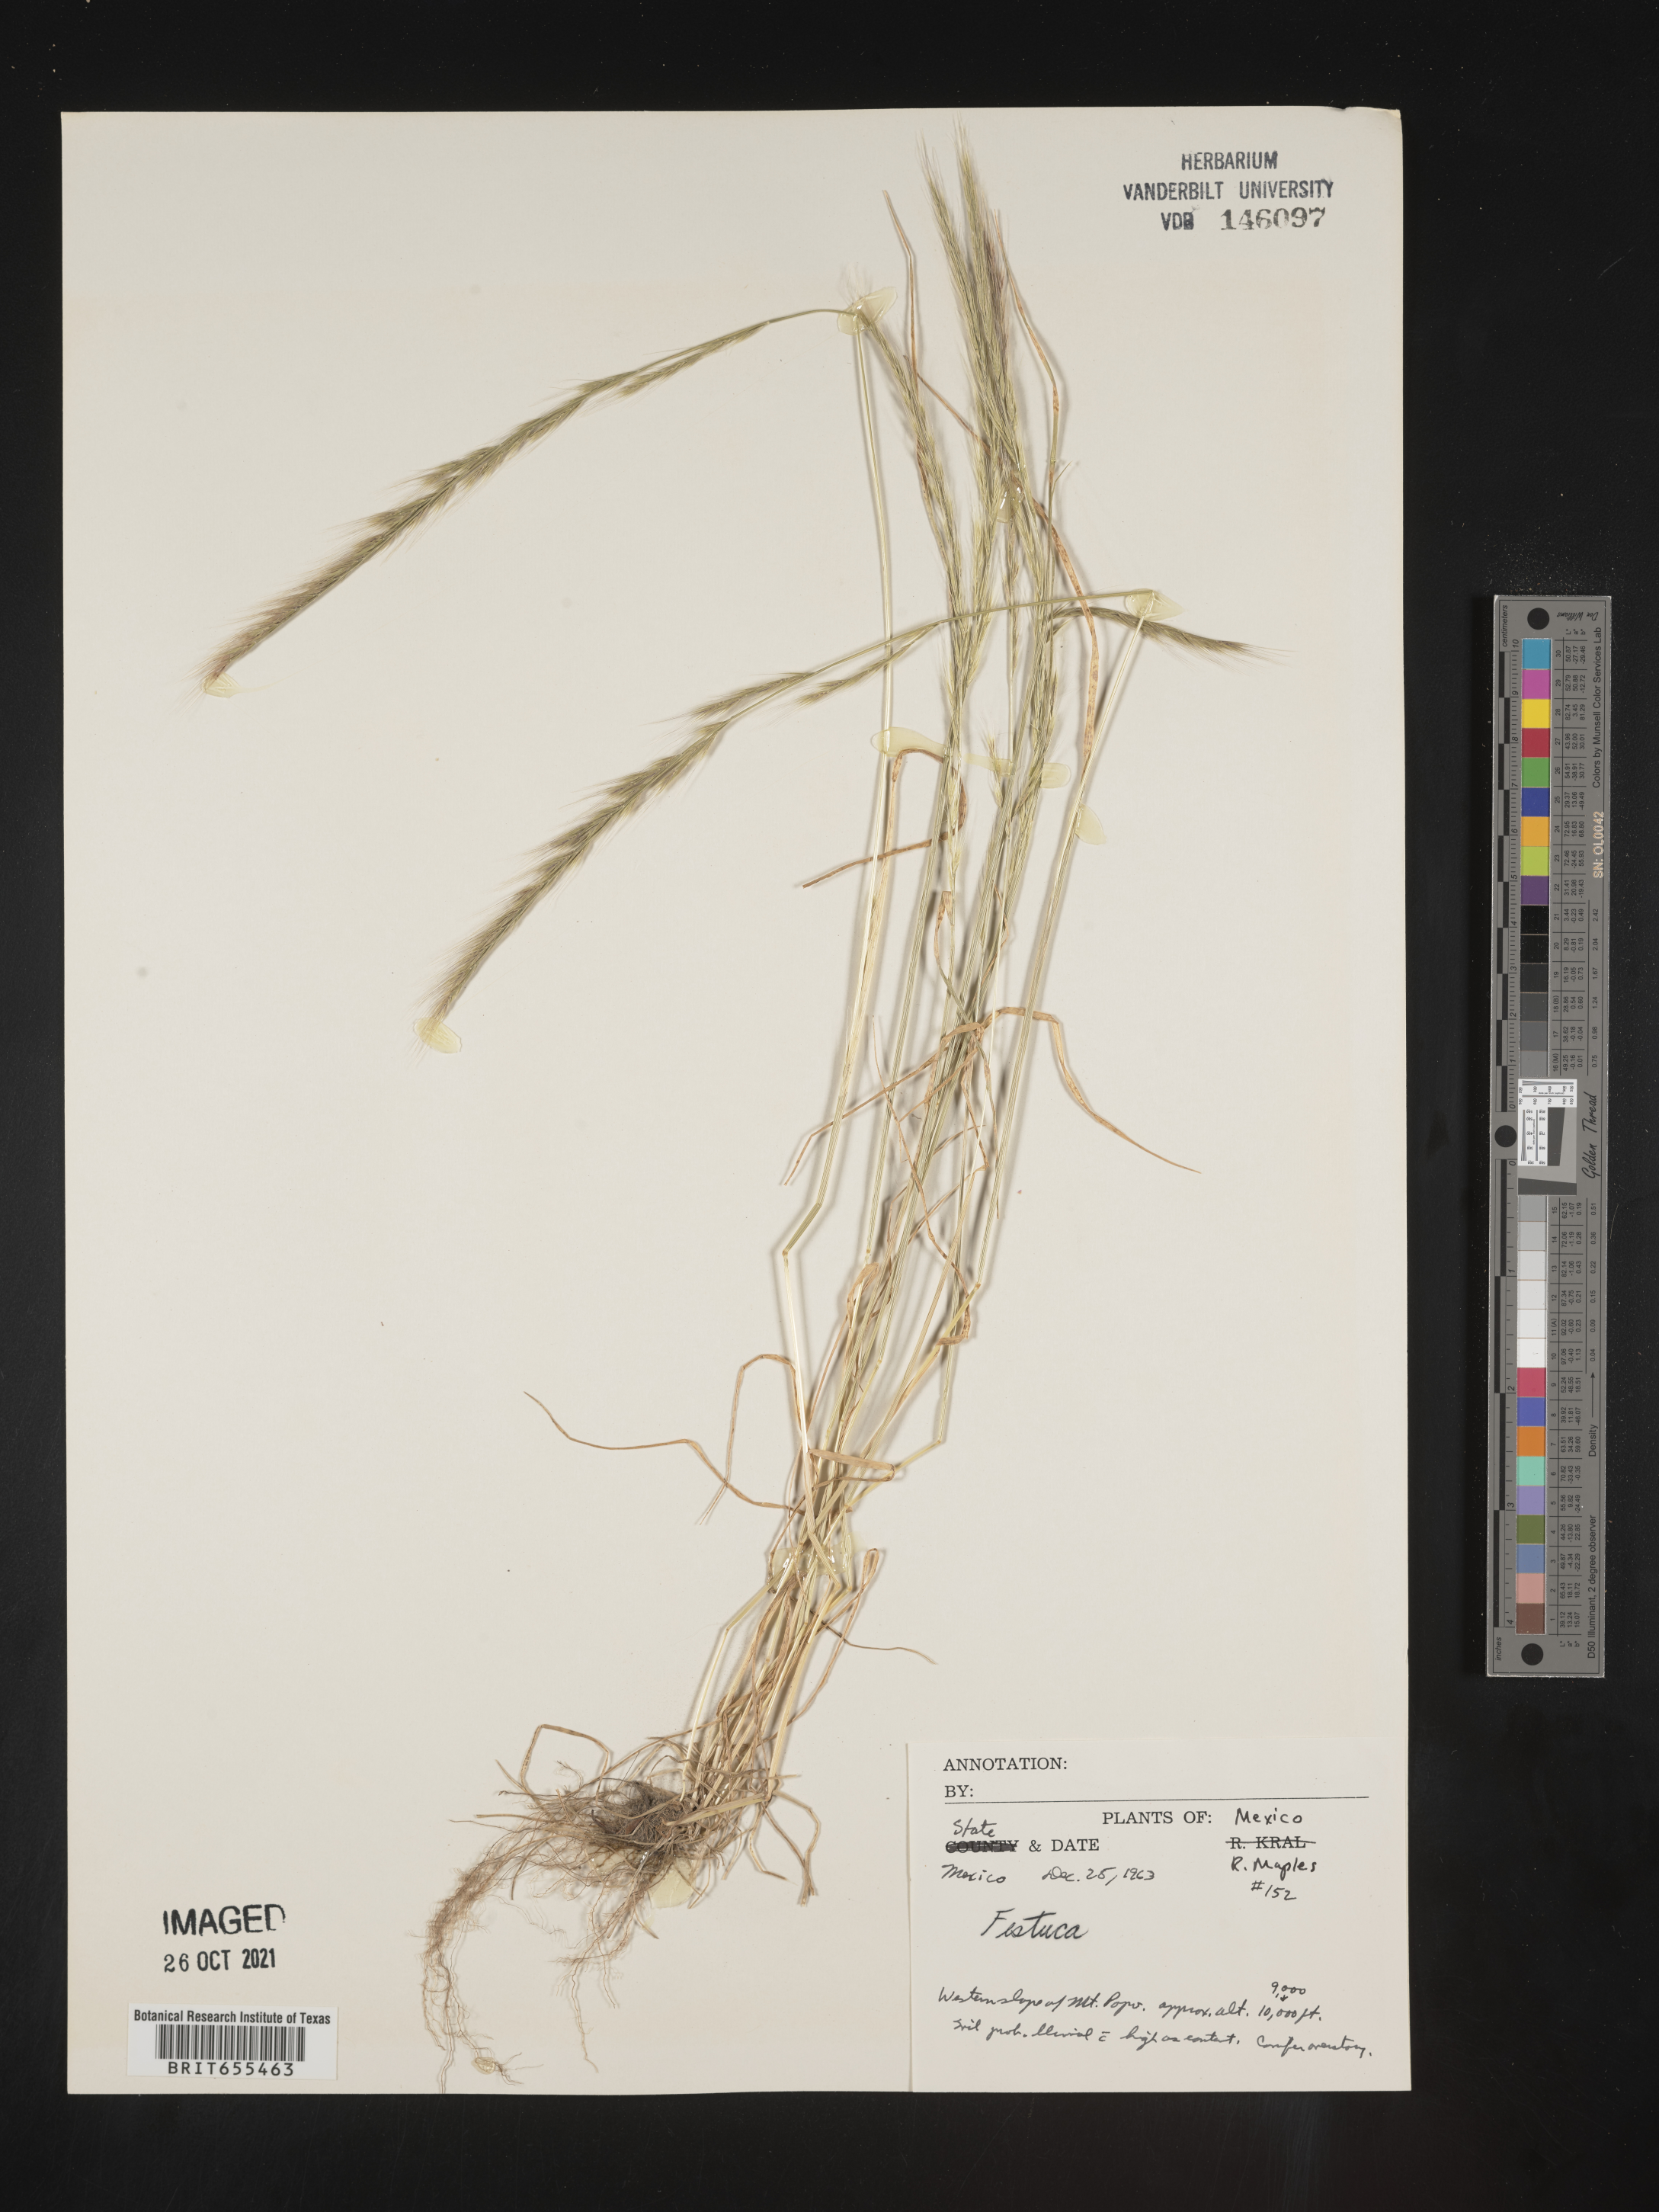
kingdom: Plantae
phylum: Tracheophyta
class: Liliopsida
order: Poales
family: Poaceae
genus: Festuca
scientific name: Festuca
